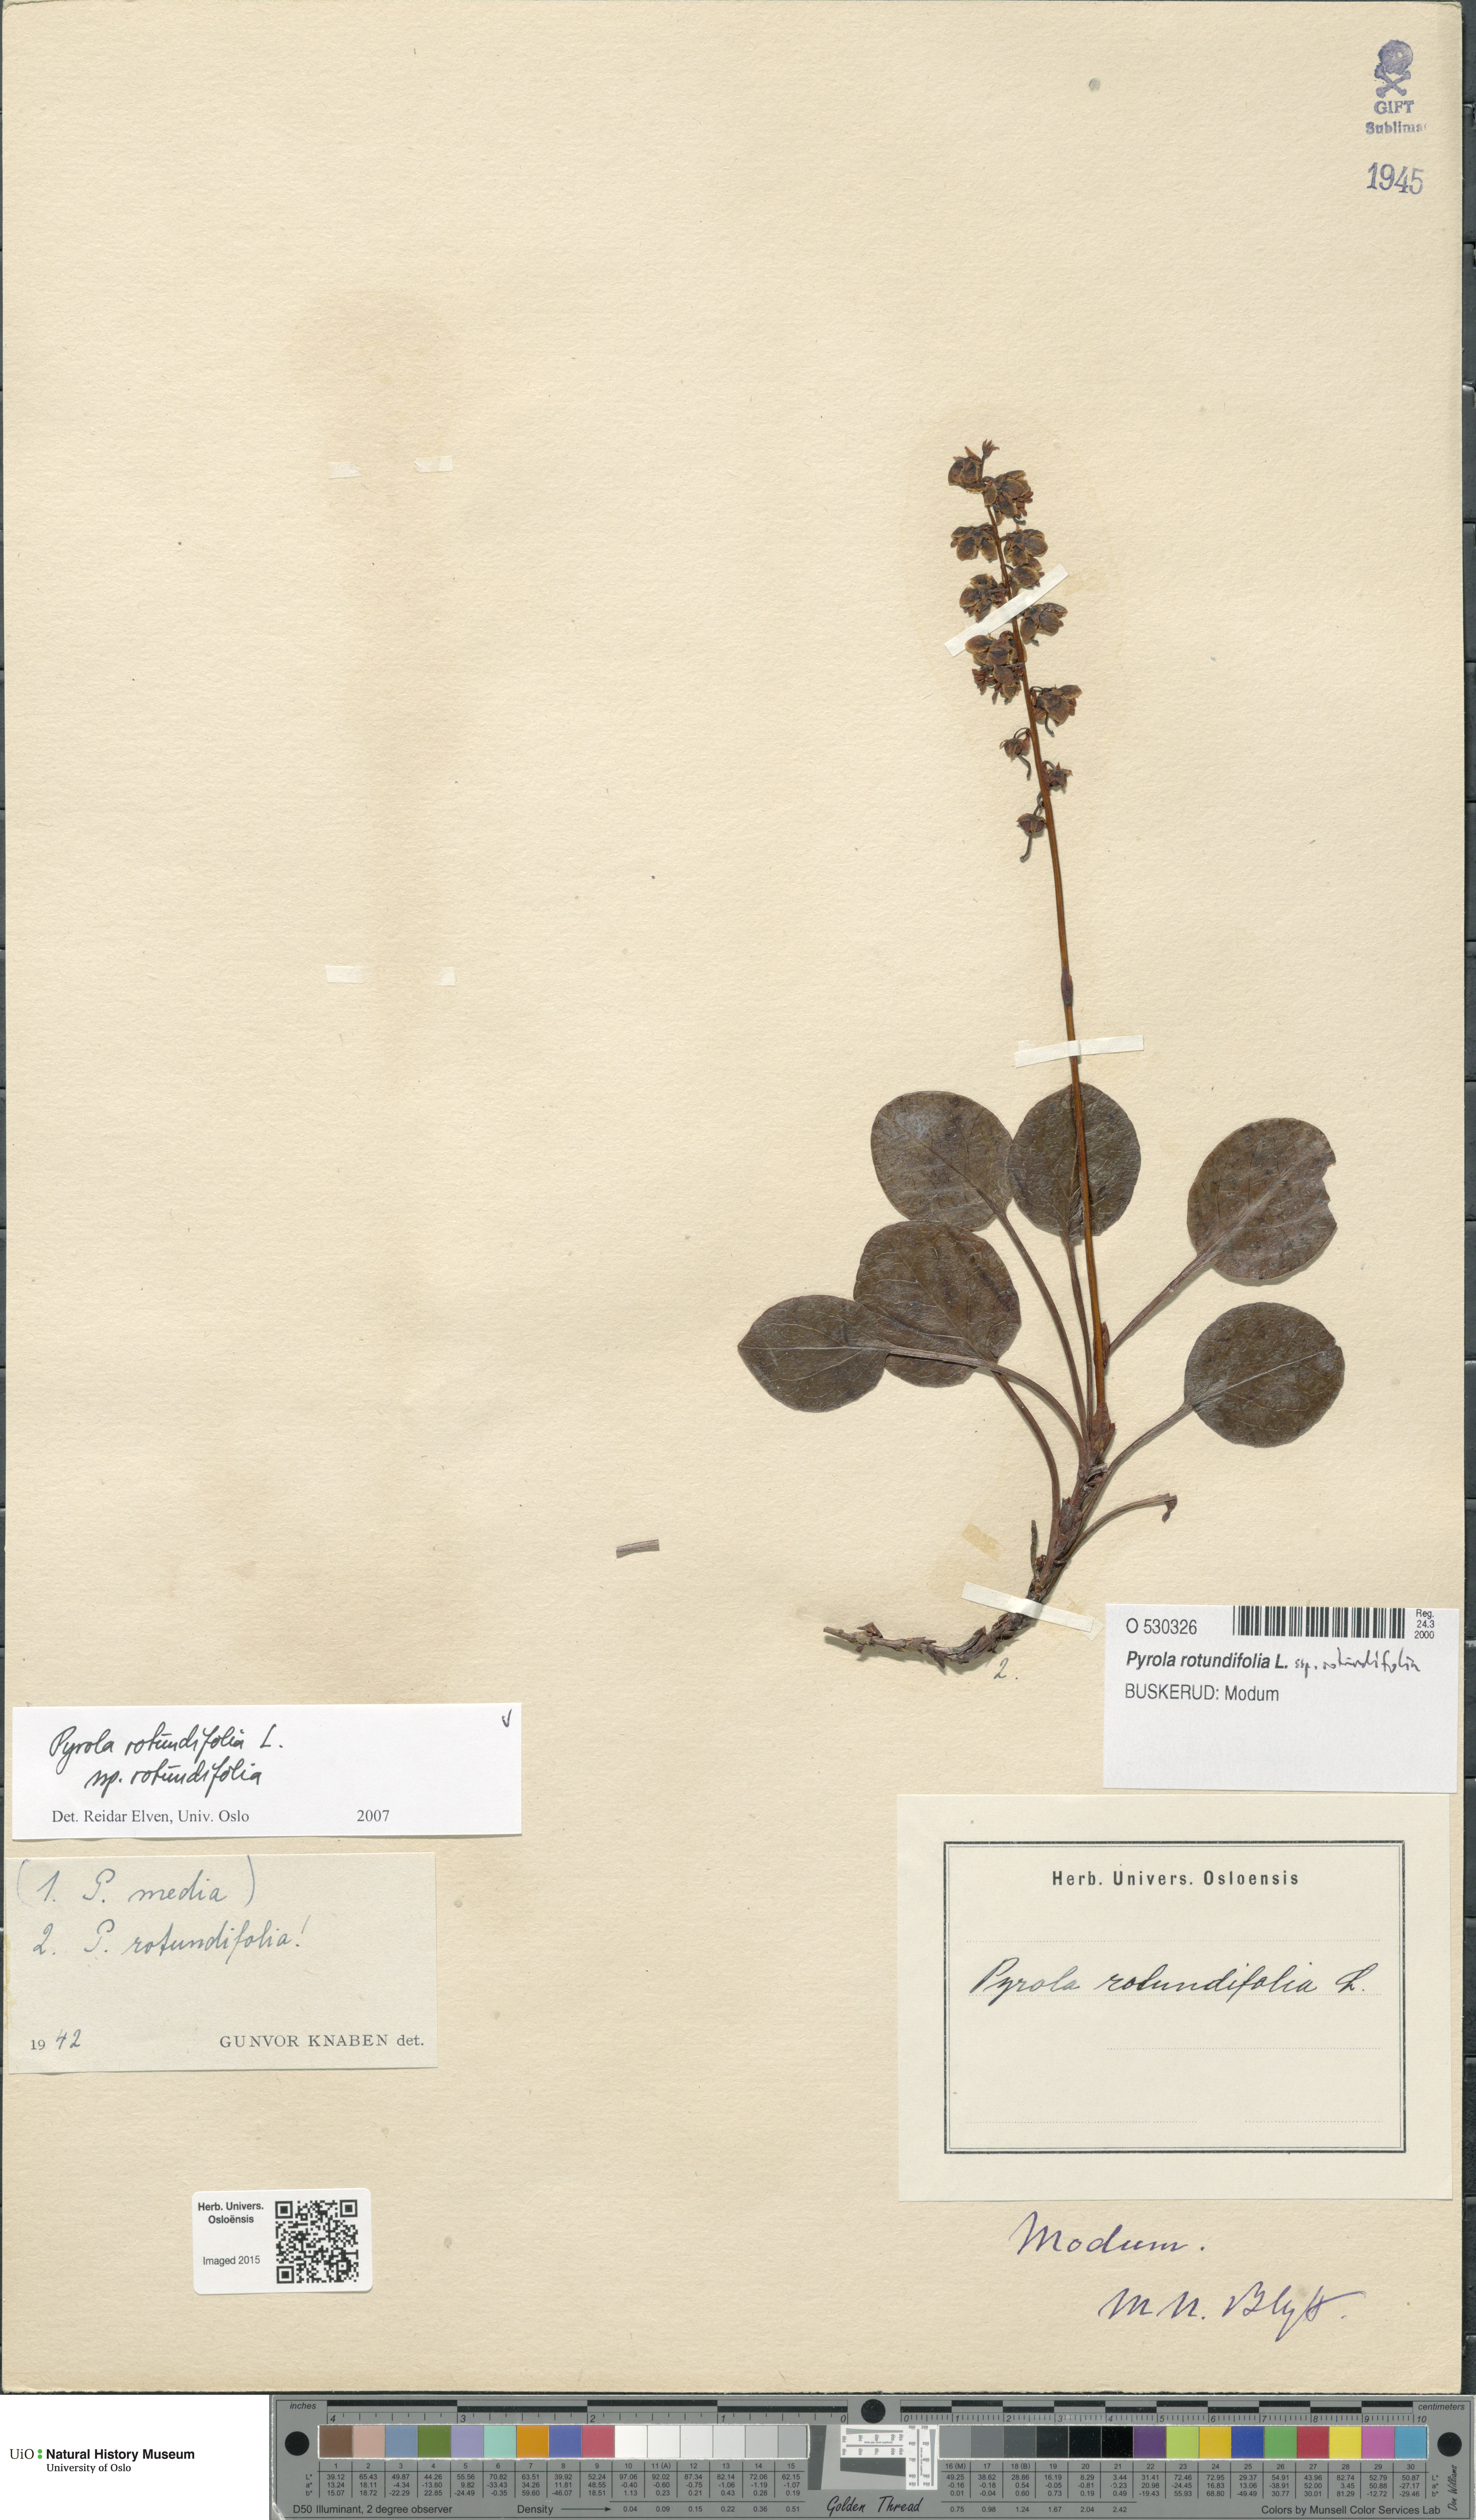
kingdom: Plantae
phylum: Tracheophyta
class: Magnoliopsida
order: Ericales
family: Ericaceae
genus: Pyrola
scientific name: Pyrola rotundifolia
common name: Round-leaved wintergreen
